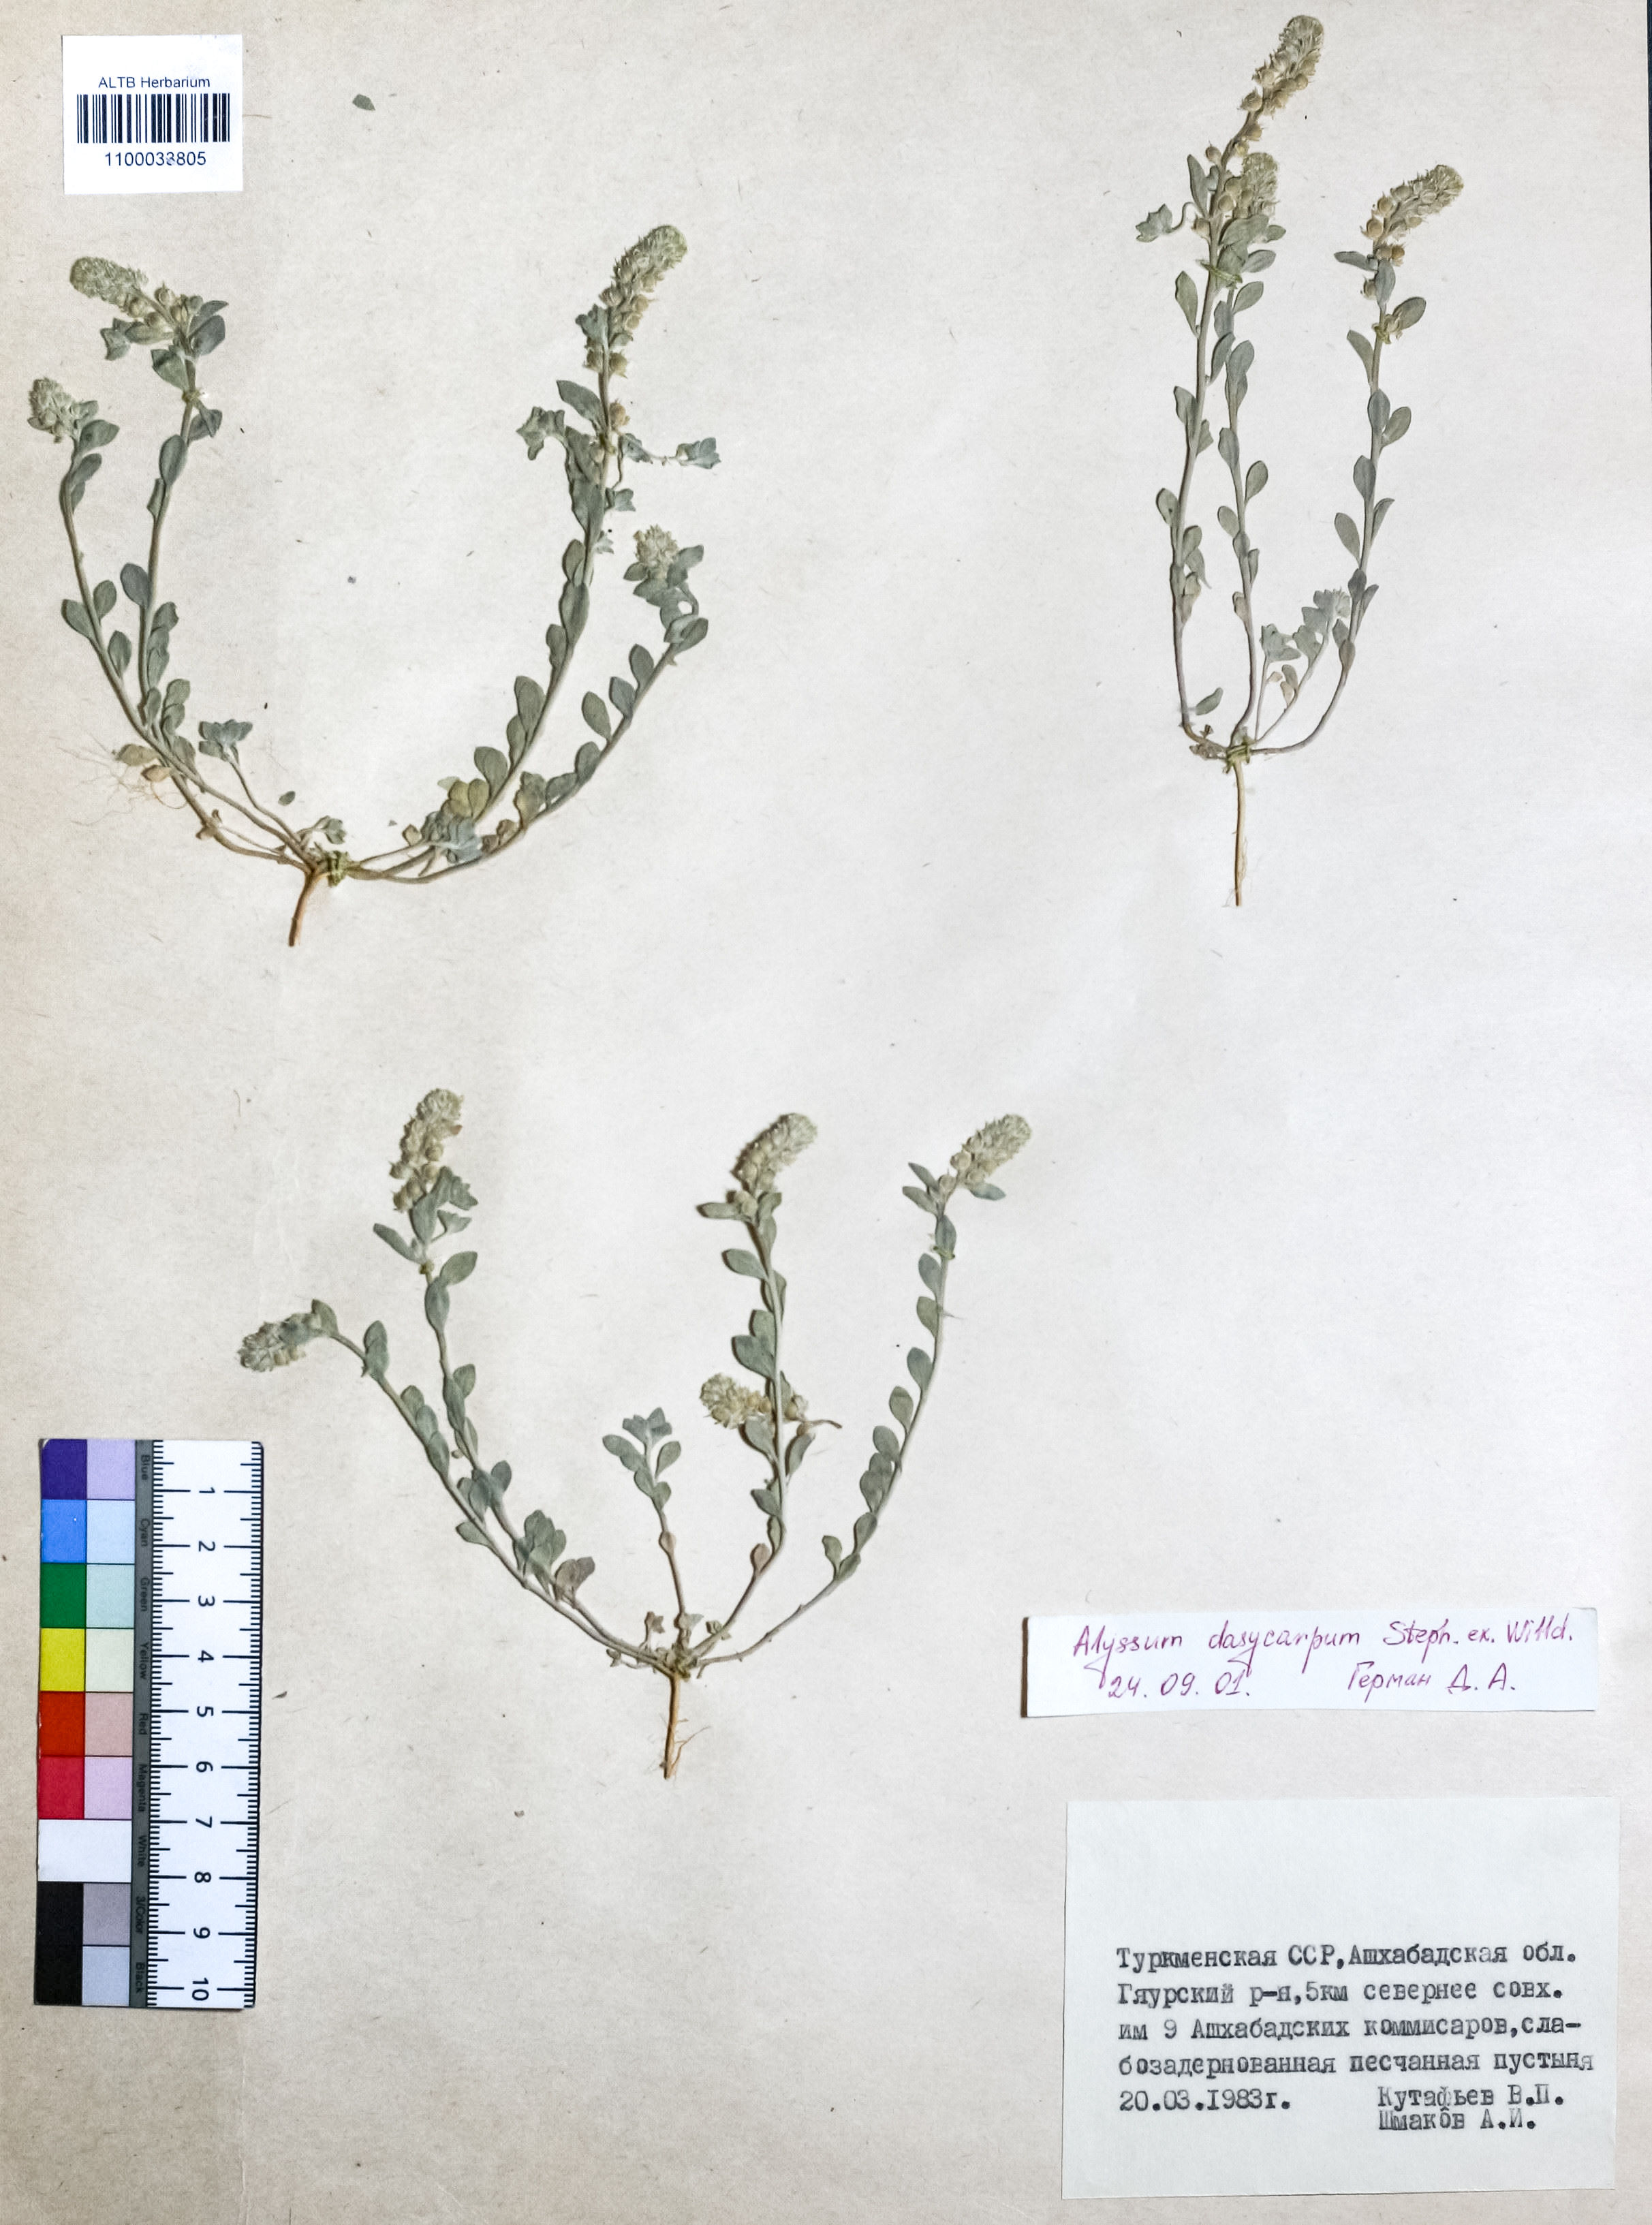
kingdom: Plantae
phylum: Tracheophyta
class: Magnoliopsida
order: Brassicales
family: Brassicaceae
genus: Alyssum
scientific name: Alyssum dasycarpum
